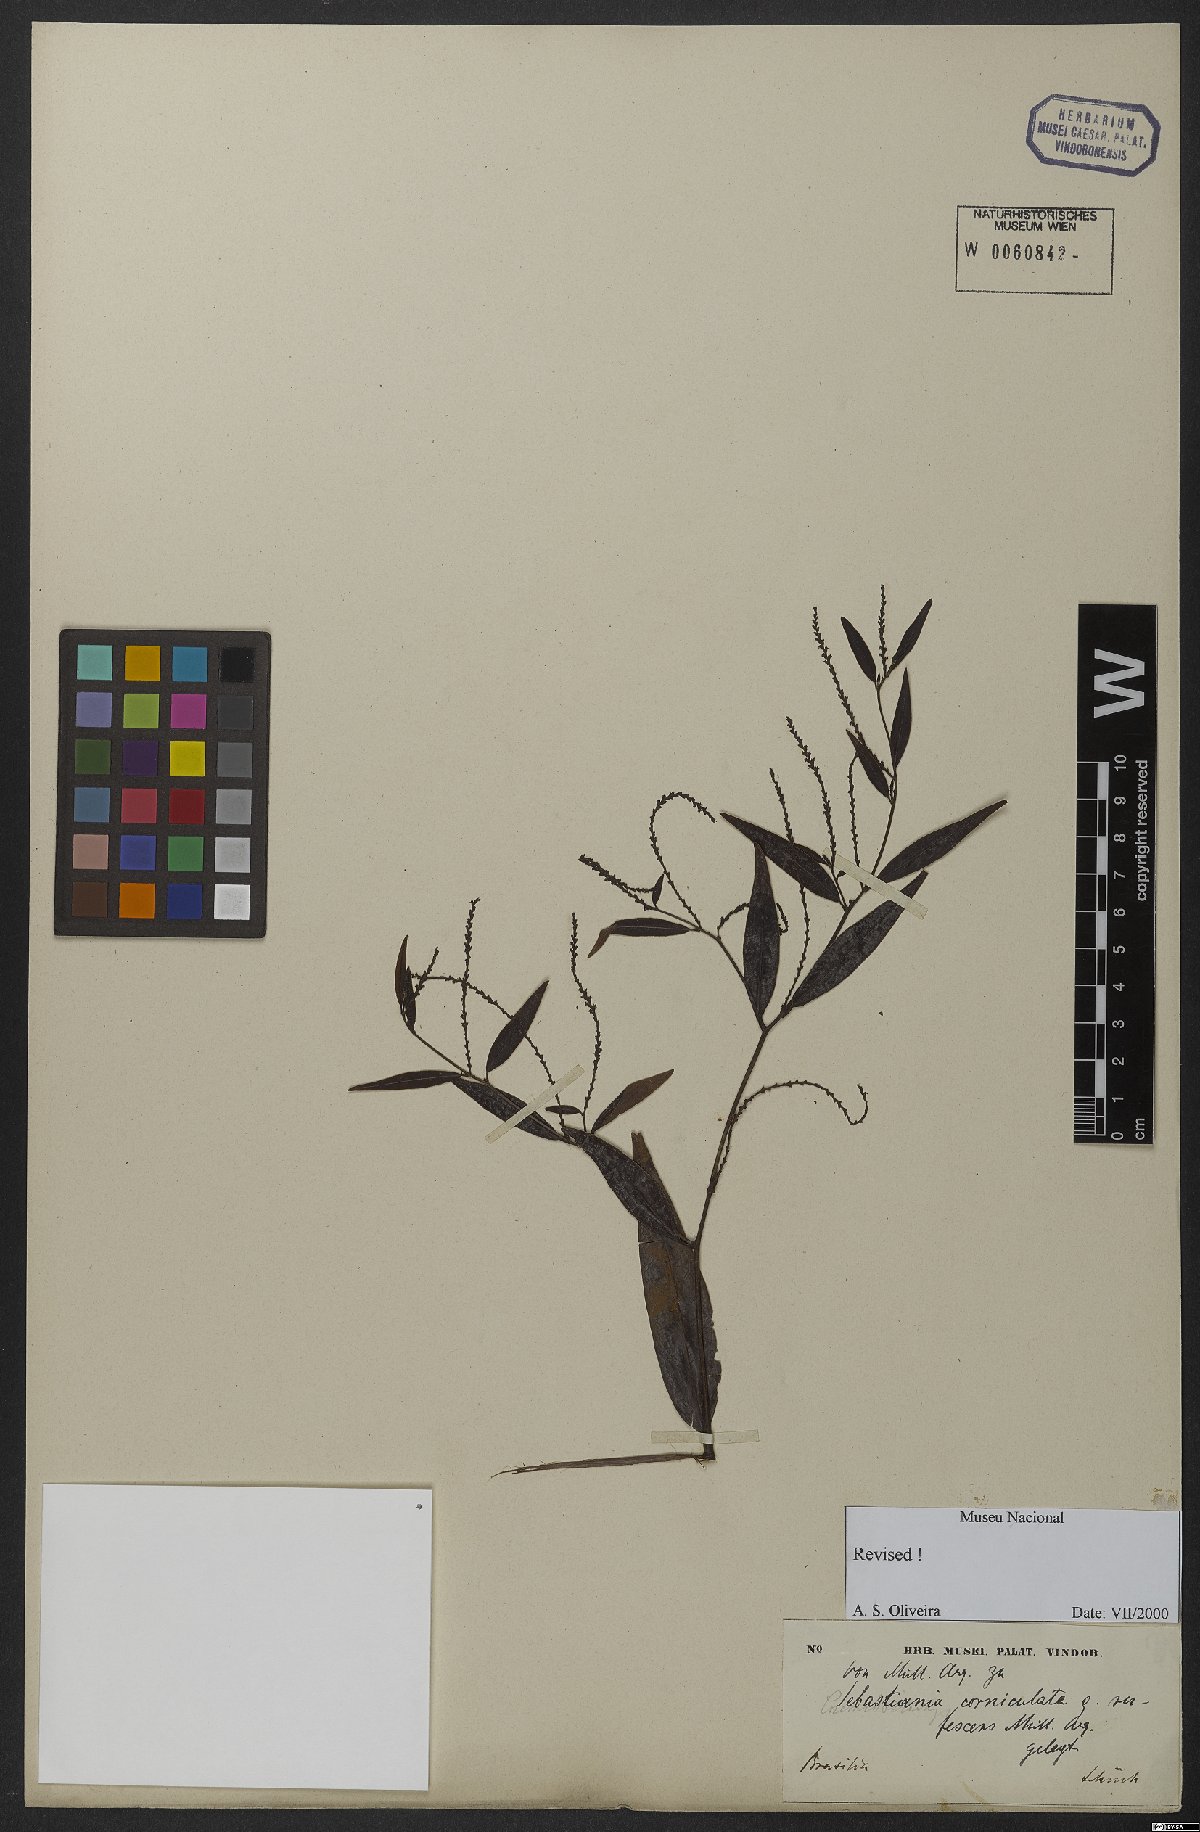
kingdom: Plantae
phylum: Tracheophyta
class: Magnoliopsida
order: Malpighiales
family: Euphorbiaceae
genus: Microstachys
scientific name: Microstachys hispida
